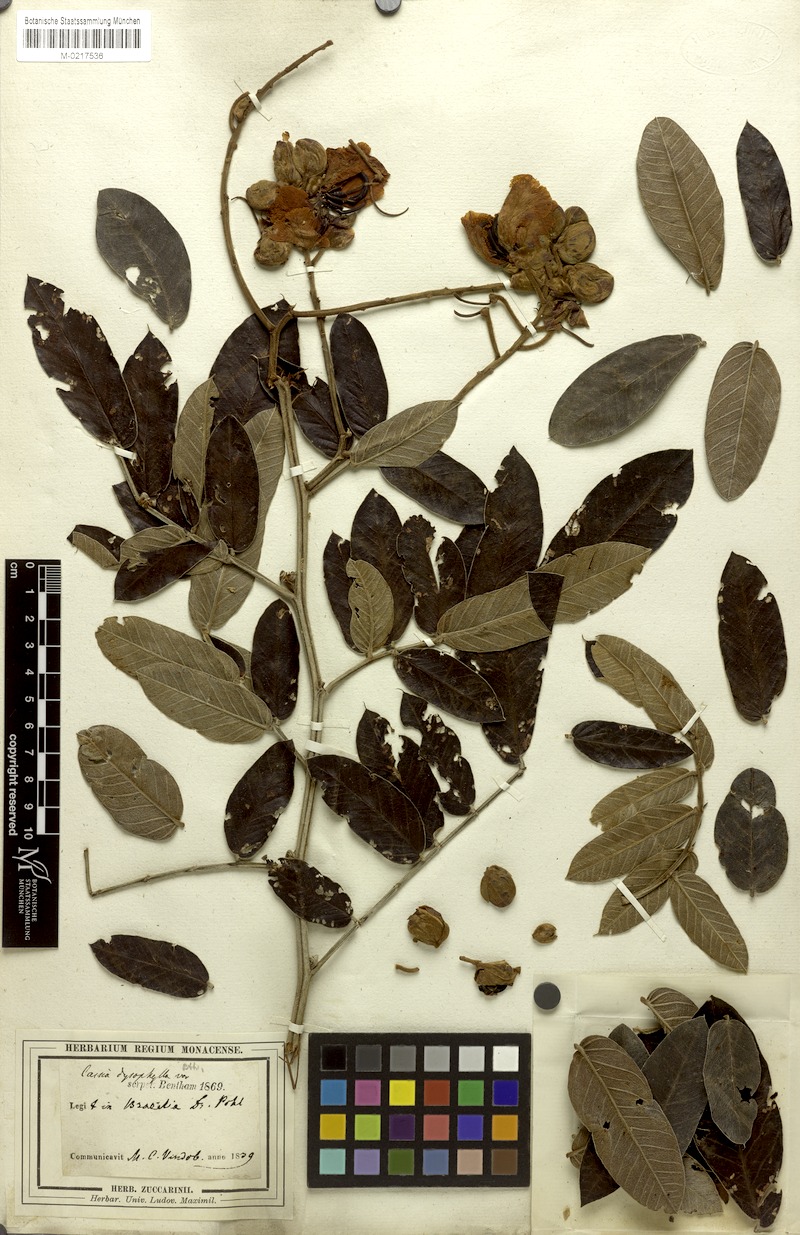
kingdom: Plantae
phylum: Tracheophyta
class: Magnoliopsida
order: Fabales
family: Fabaceae
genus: Senna
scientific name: Senna velutina
